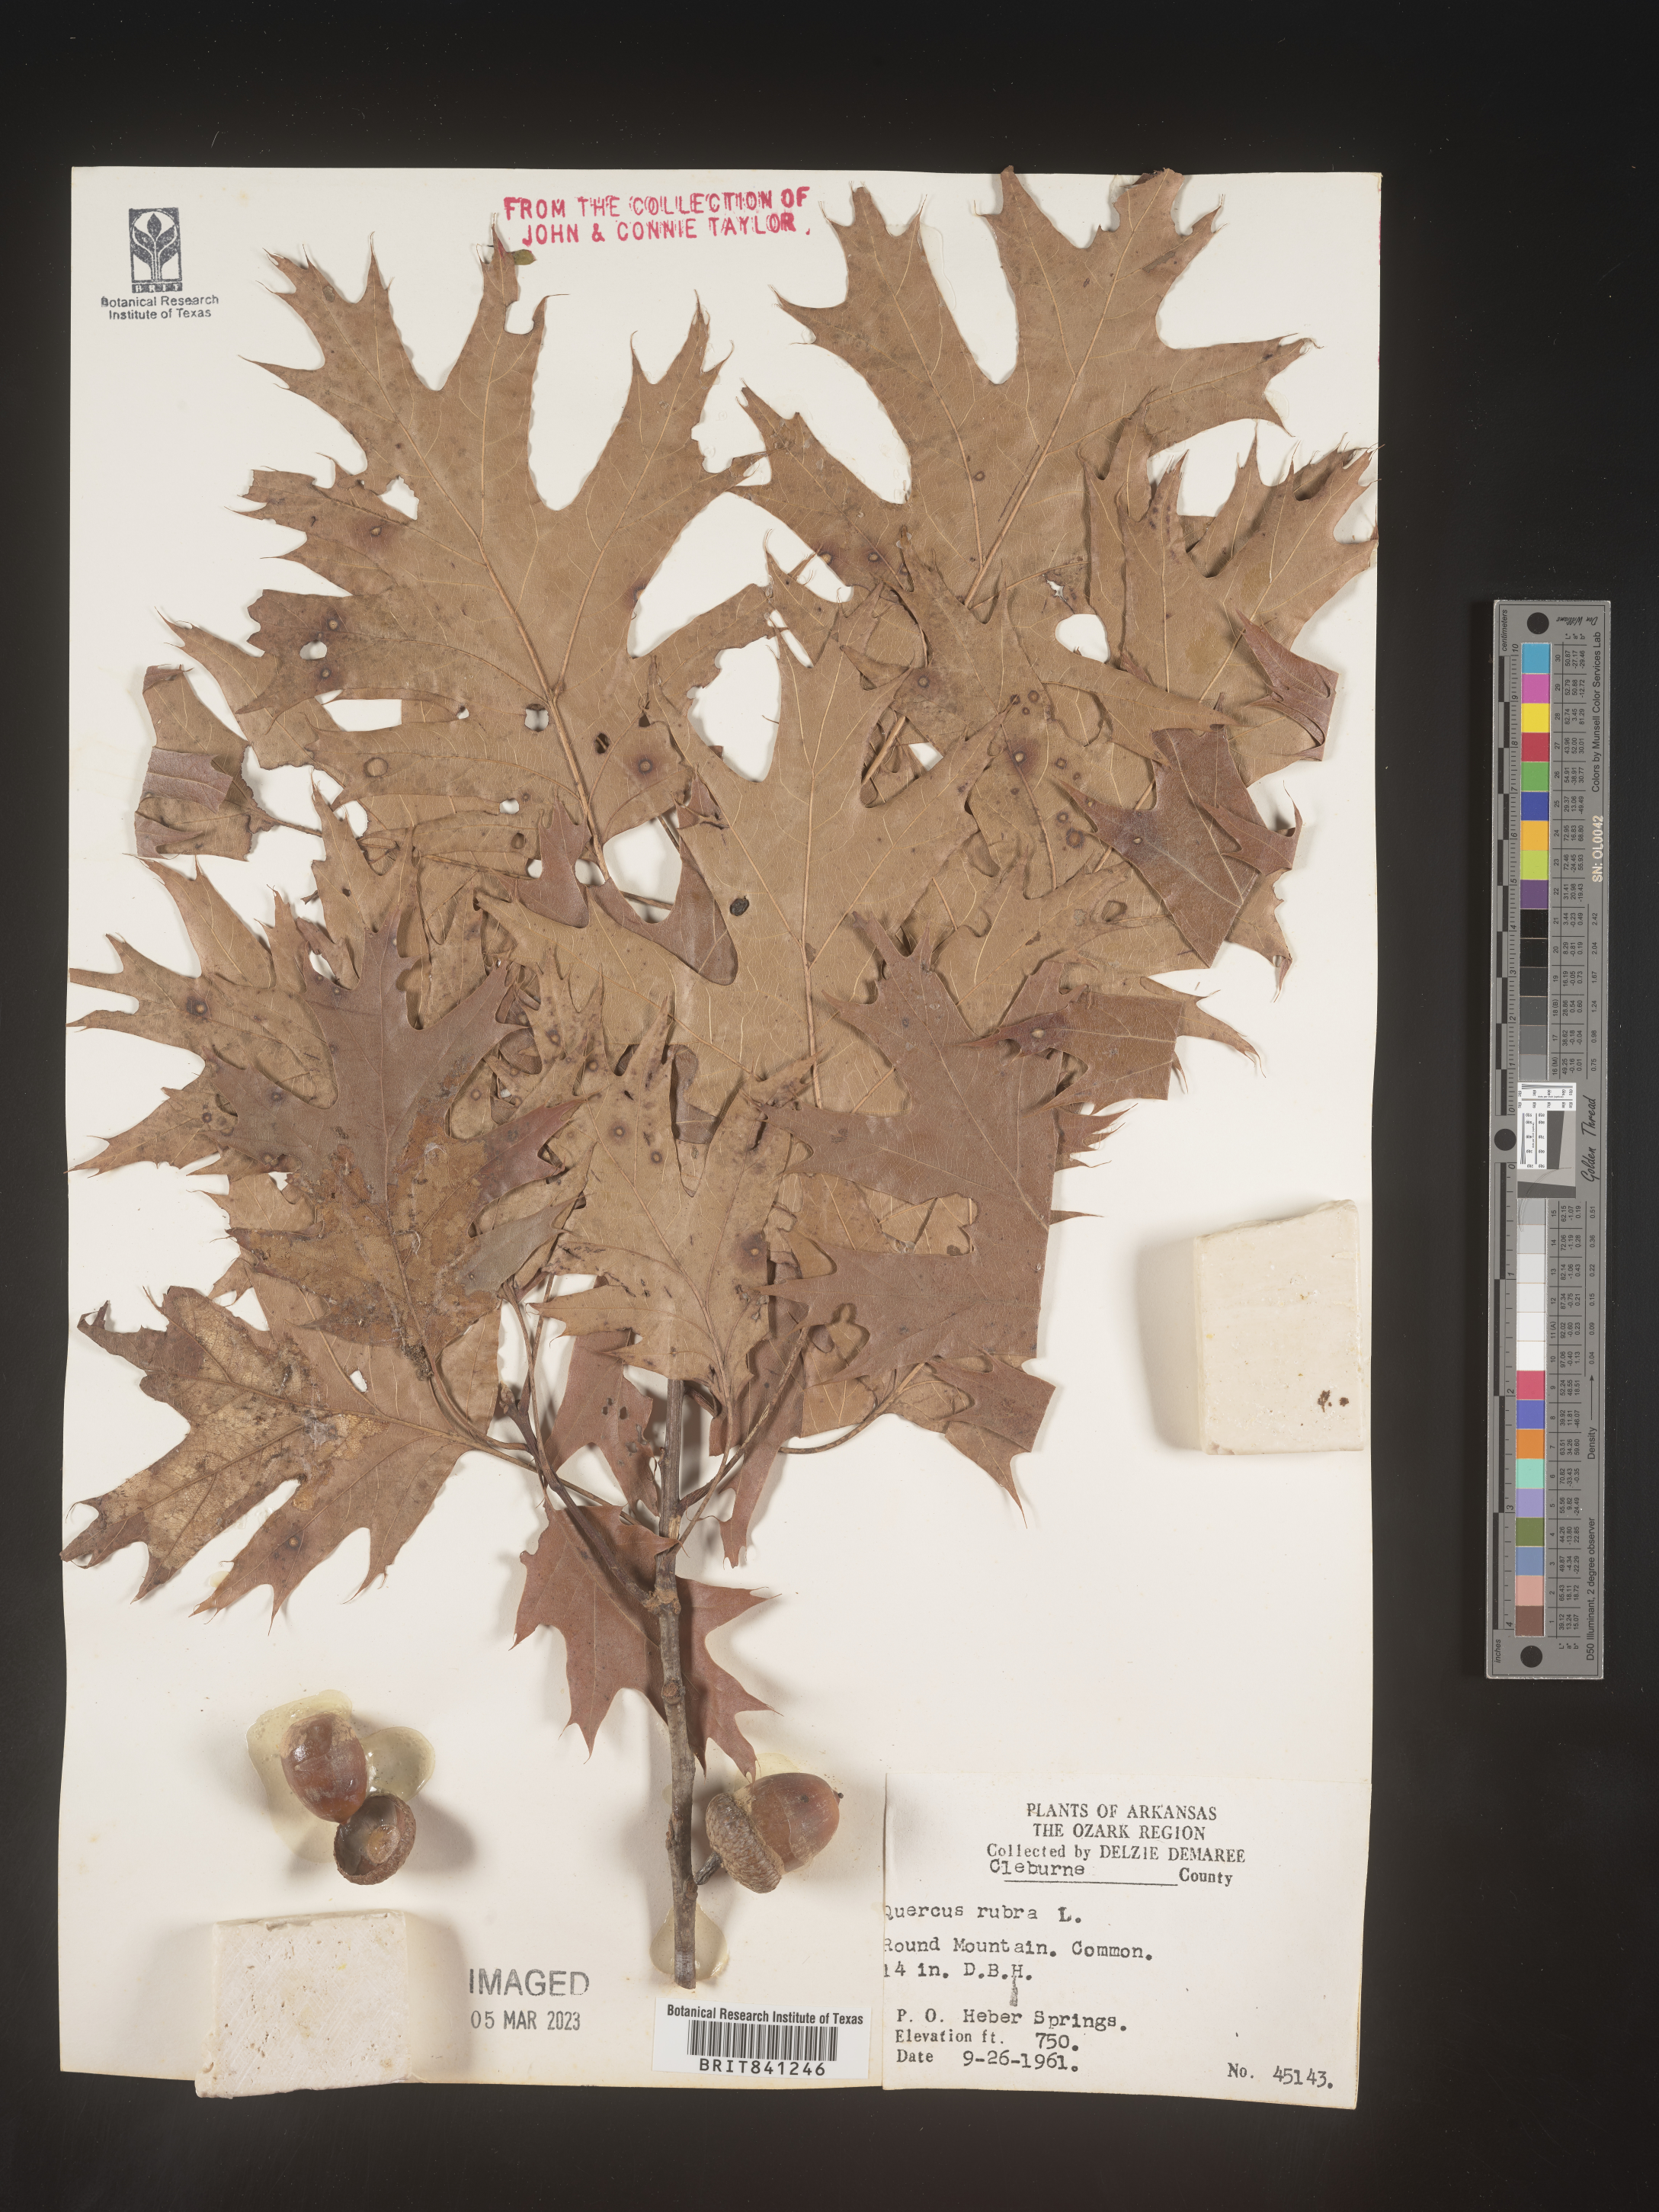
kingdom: Plantae
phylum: Tracheophyta
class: Magnoliopsida
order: Fagales
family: Fagaceae
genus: Quercus
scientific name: Quercus rubra
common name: Red oak
